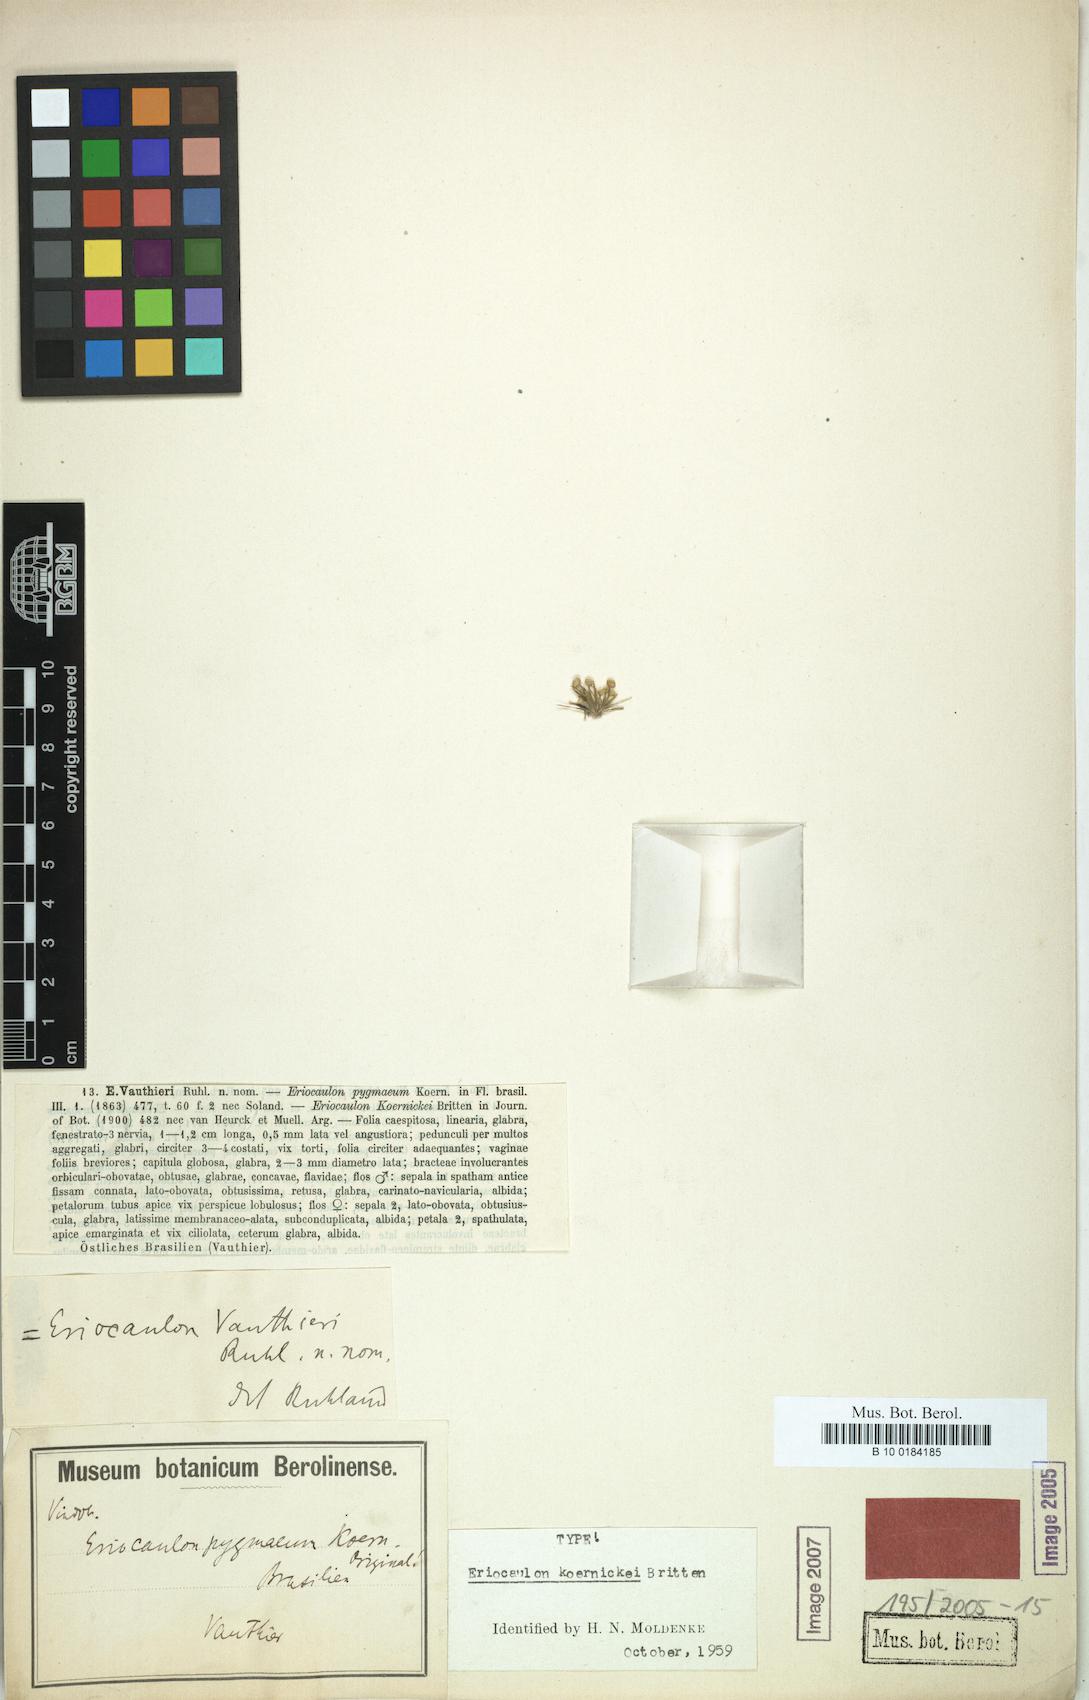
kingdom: Plantae
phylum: Tracheophyta
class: Liliopsida
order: Poales
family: Eriocaulaceae
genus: Eriocaulon
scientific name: Eriocaulon koernickei
